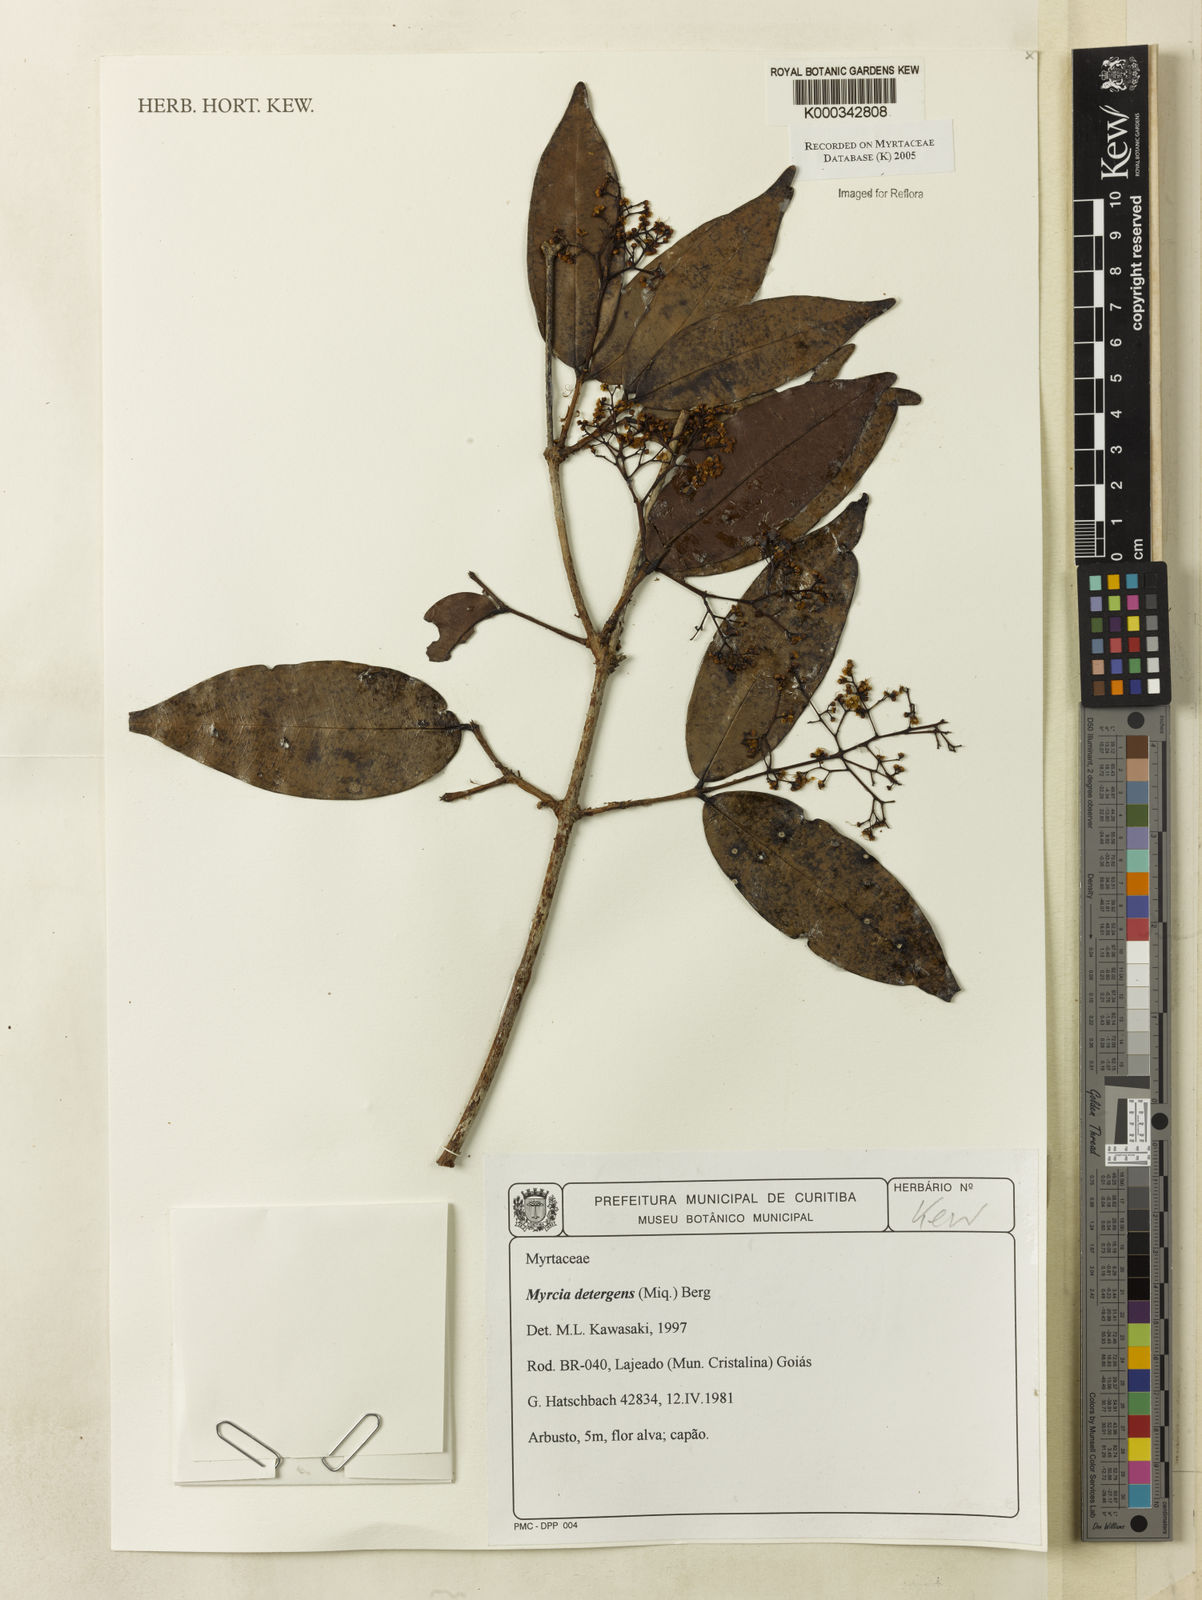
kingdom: Plantae
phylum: Tracheophyta
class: Magnoliopsida
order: Myrtales
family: Myrtaceae
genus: Myrcia
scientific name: Myrcia amazonica
